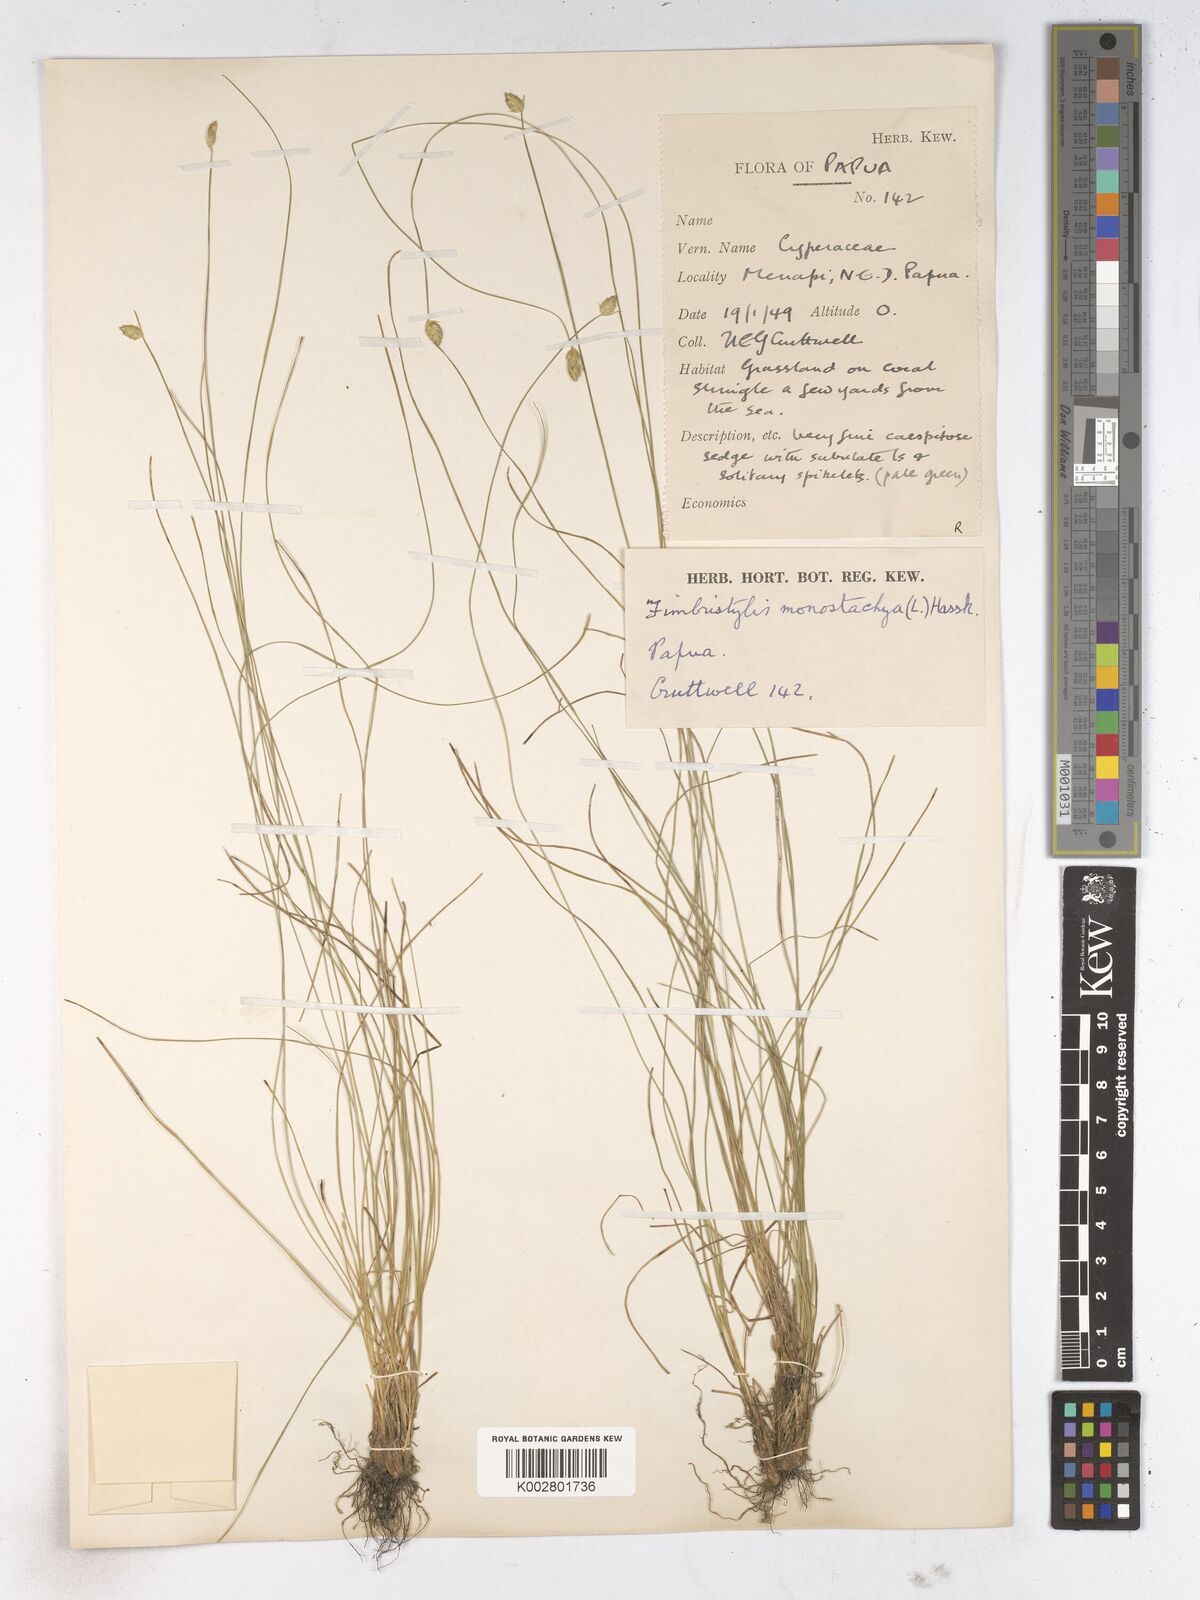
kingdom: Plantae
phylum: Tracheophyta
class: Liliopsida
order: Poales
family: Cyperaceae
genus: Abildgaardia
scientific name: Abildgaardia ovata
